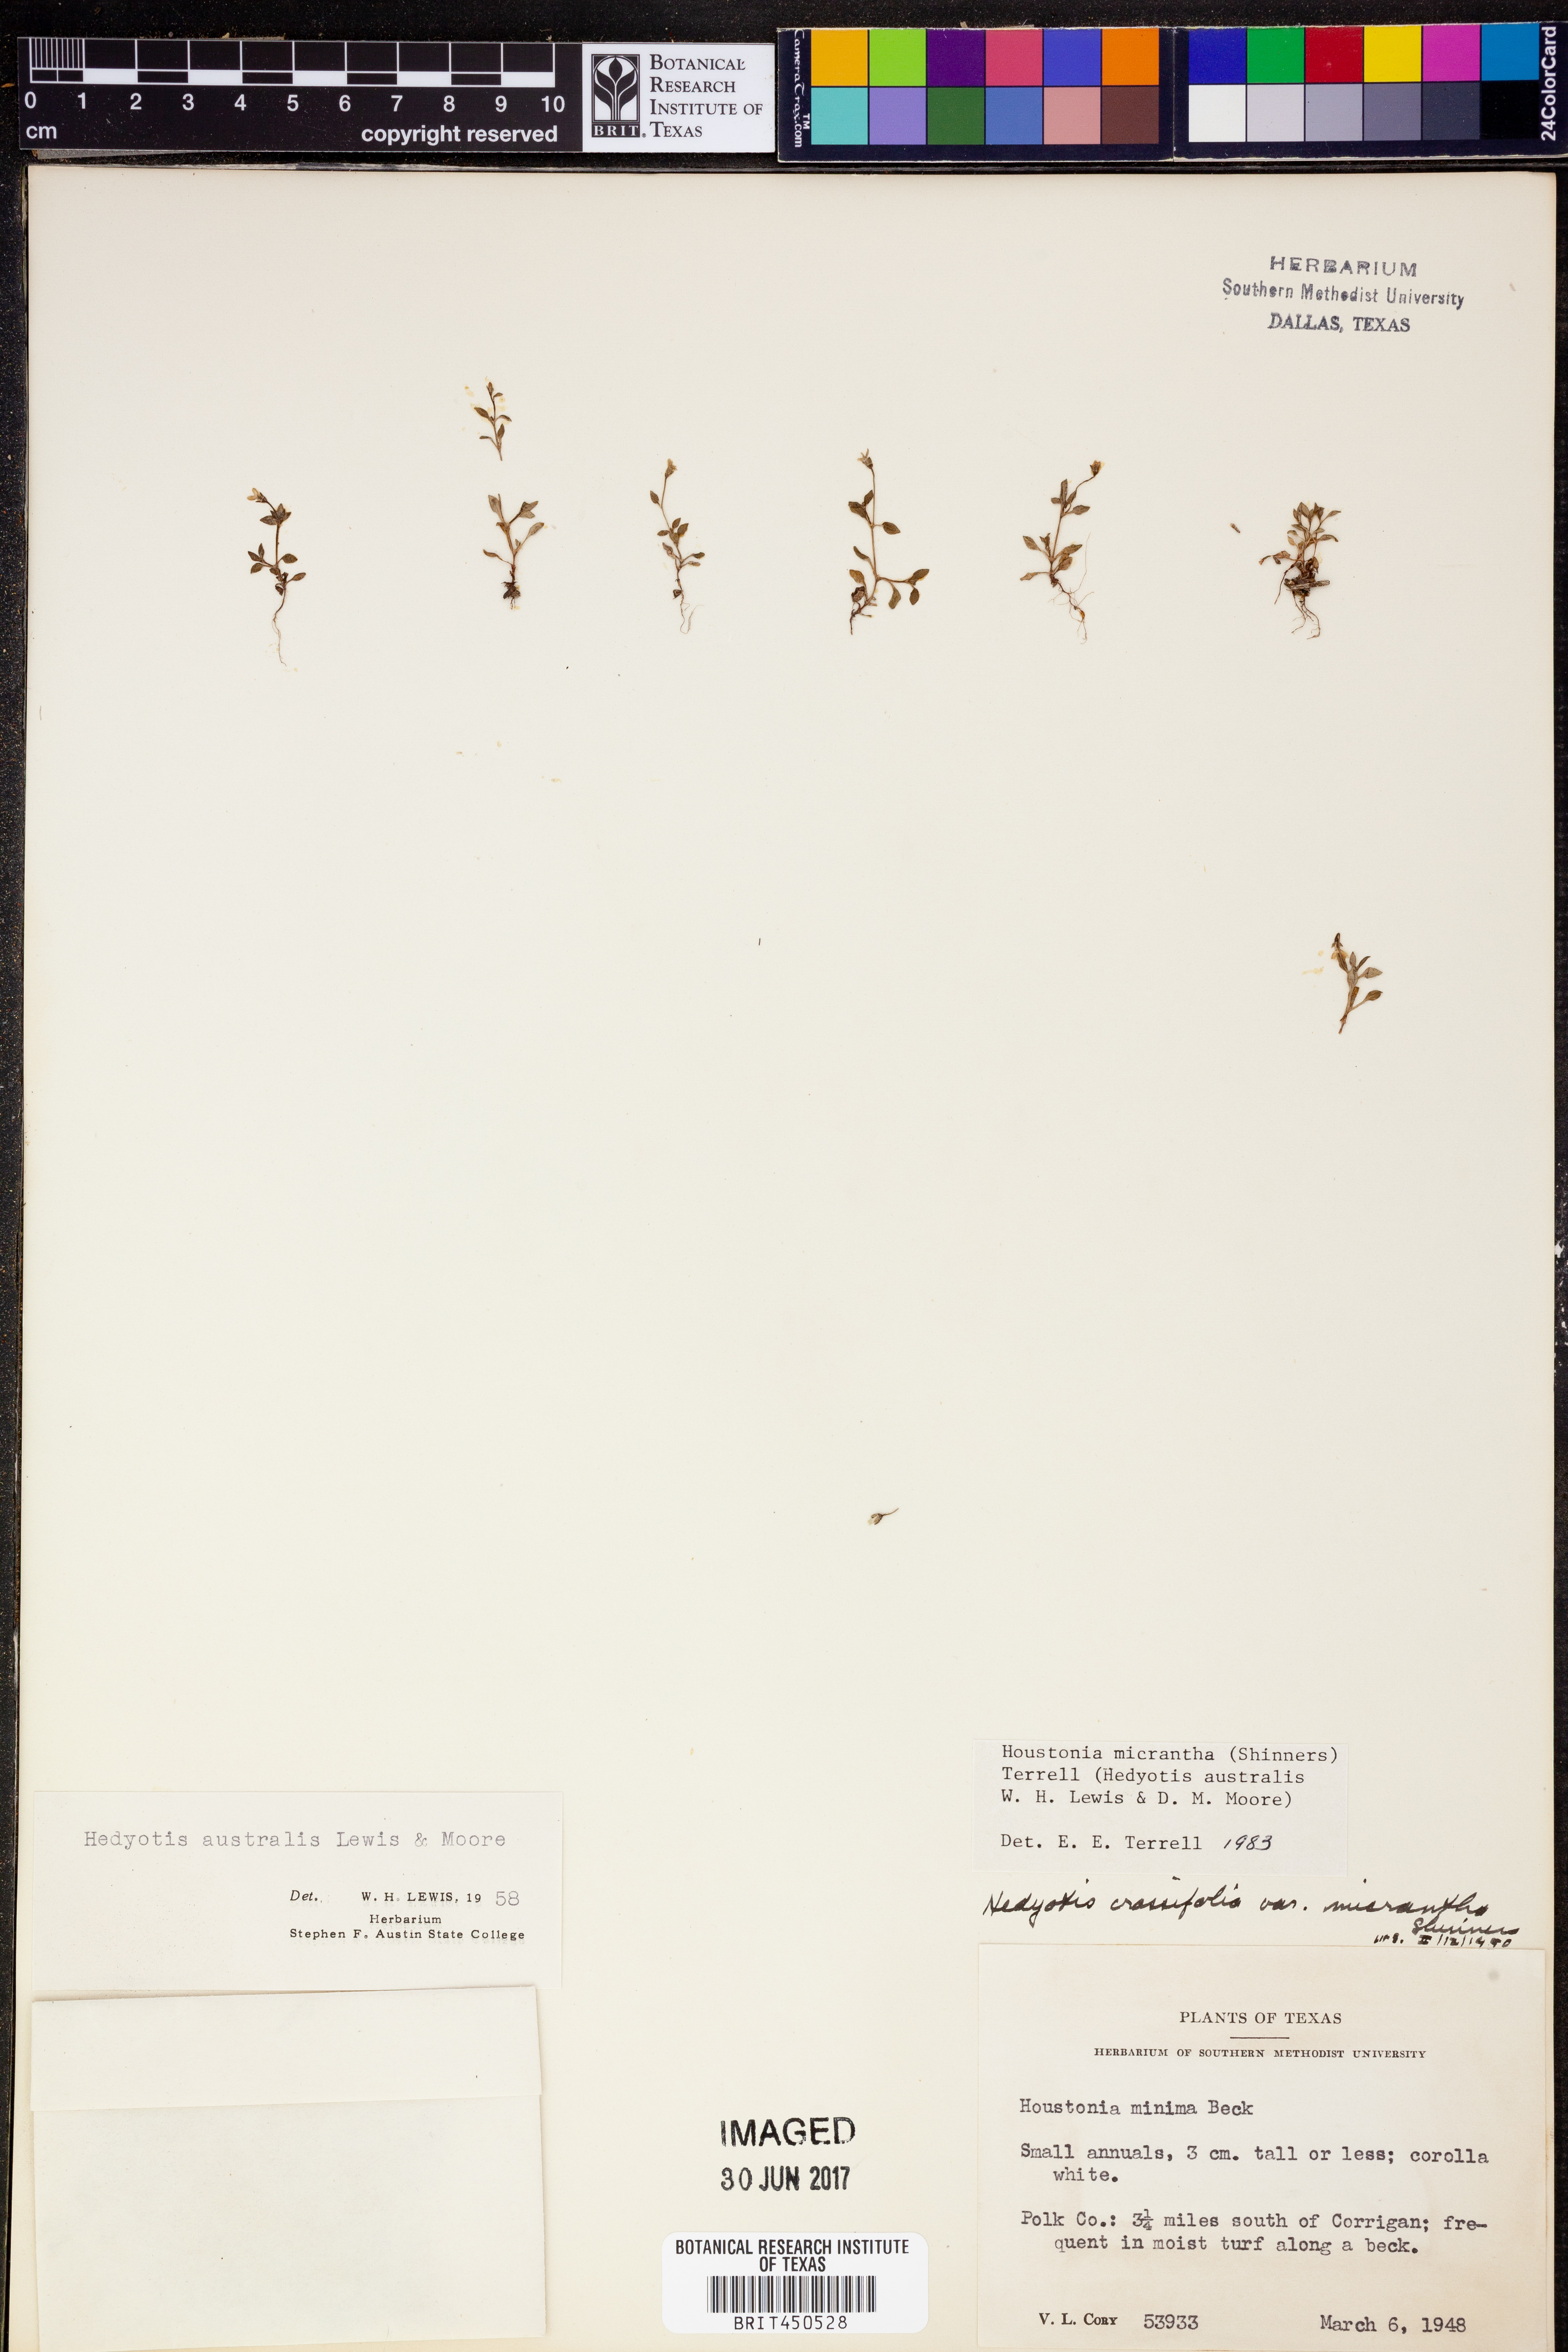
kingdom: Plantae
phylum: Tracheophyta
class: Magnoliopsida
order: Gentianales
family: Rubiaceae
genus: Houstonia
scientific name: Houstonia micrantha
